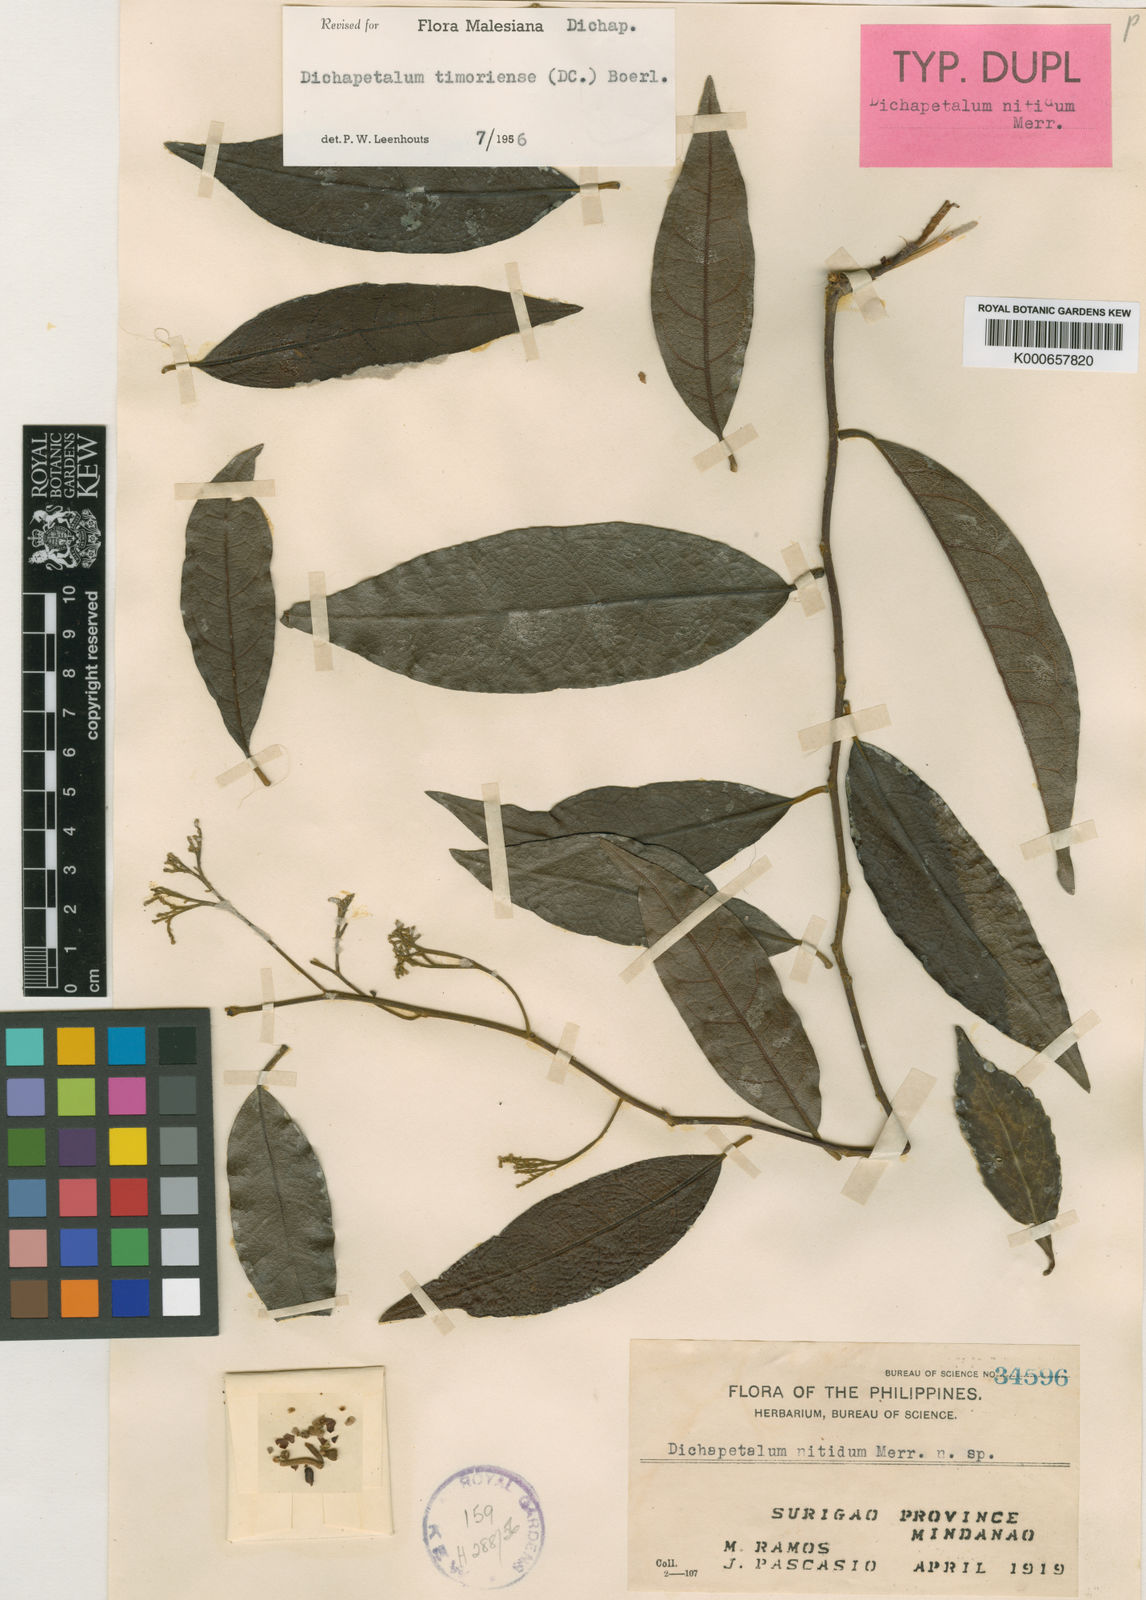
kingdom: Plantae
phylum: Tracheophyta
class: Magnoliopsida
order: Malpighiales
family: Dichapetalaceae
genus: Dichapetalum
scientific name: Dichapetalum timoriense
